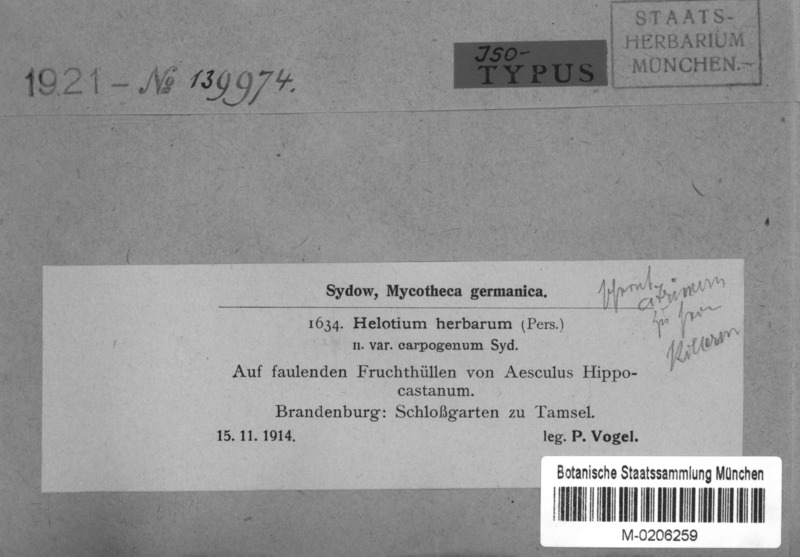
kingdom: Fungi
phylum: Ascomycota
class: Leotiomycetes
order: Helotiales
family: Pezizellaceae
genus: Calycina
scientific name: Calycina herbarum
